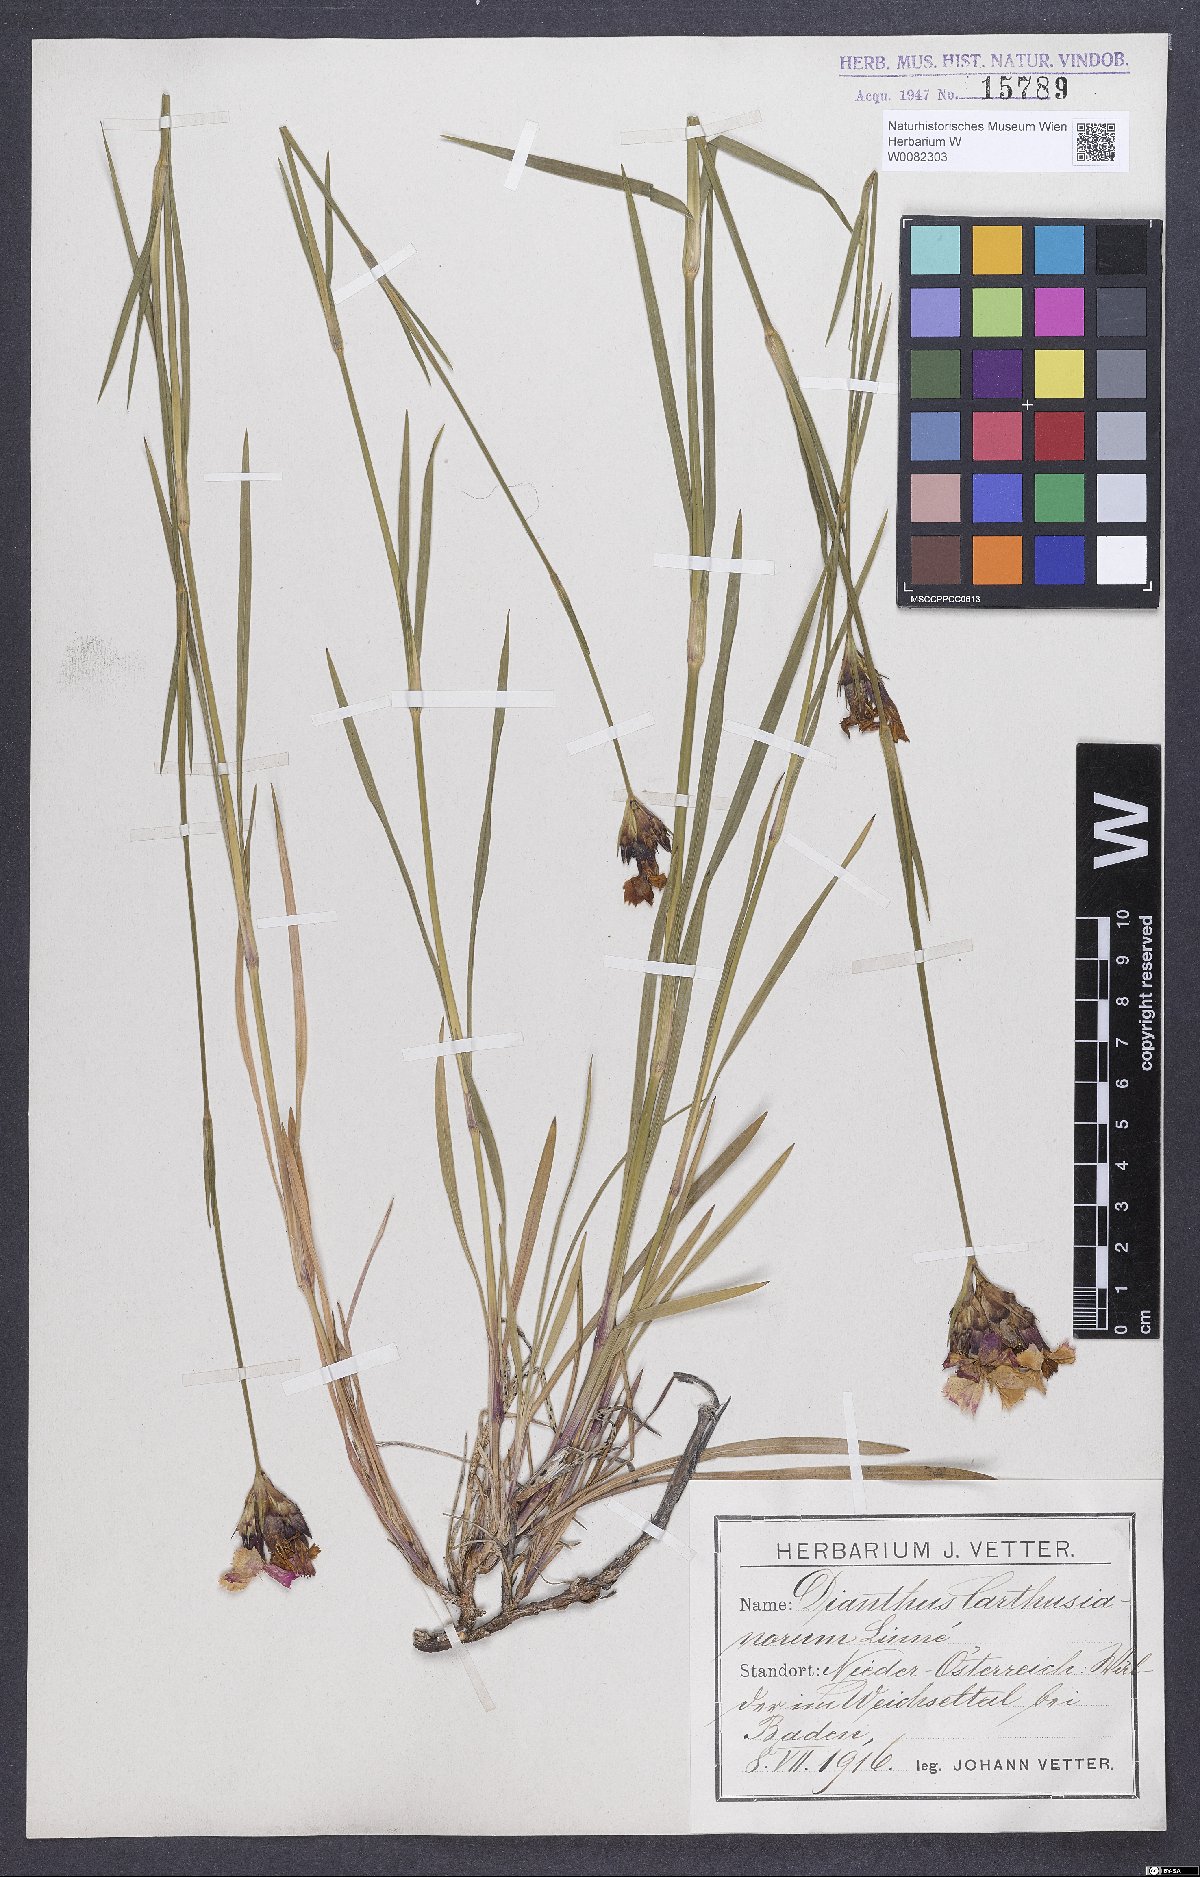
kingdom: Plantae
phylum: Tracheophyta
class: Magnoliopsida
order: Caryophyllales
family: Caryophyllaceae
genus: Dianthus
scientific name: Dianthus carthusianorum
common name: Carthusian pink
